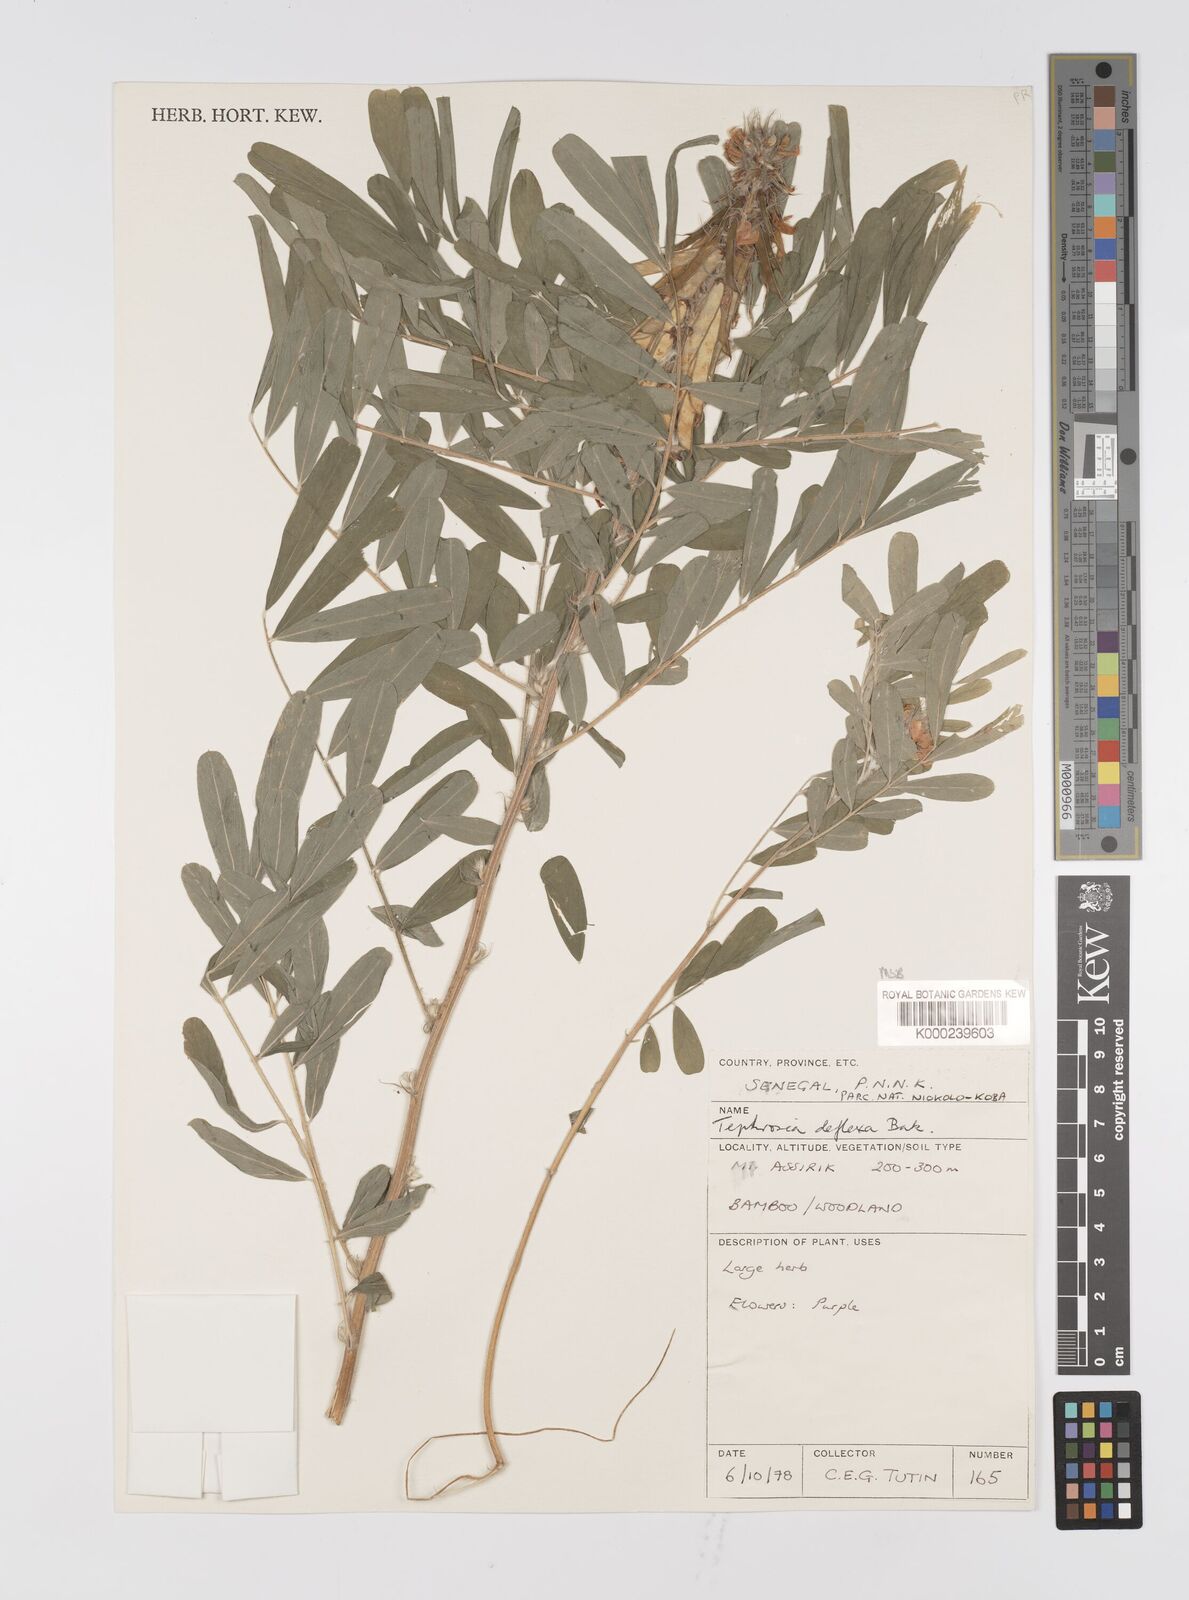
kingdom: Plantae
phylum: Tracheophyta
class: Magnoliopsida
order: Fabales
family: Fabaceae
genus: Tephrosia
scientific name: Tephrosia deflexa
